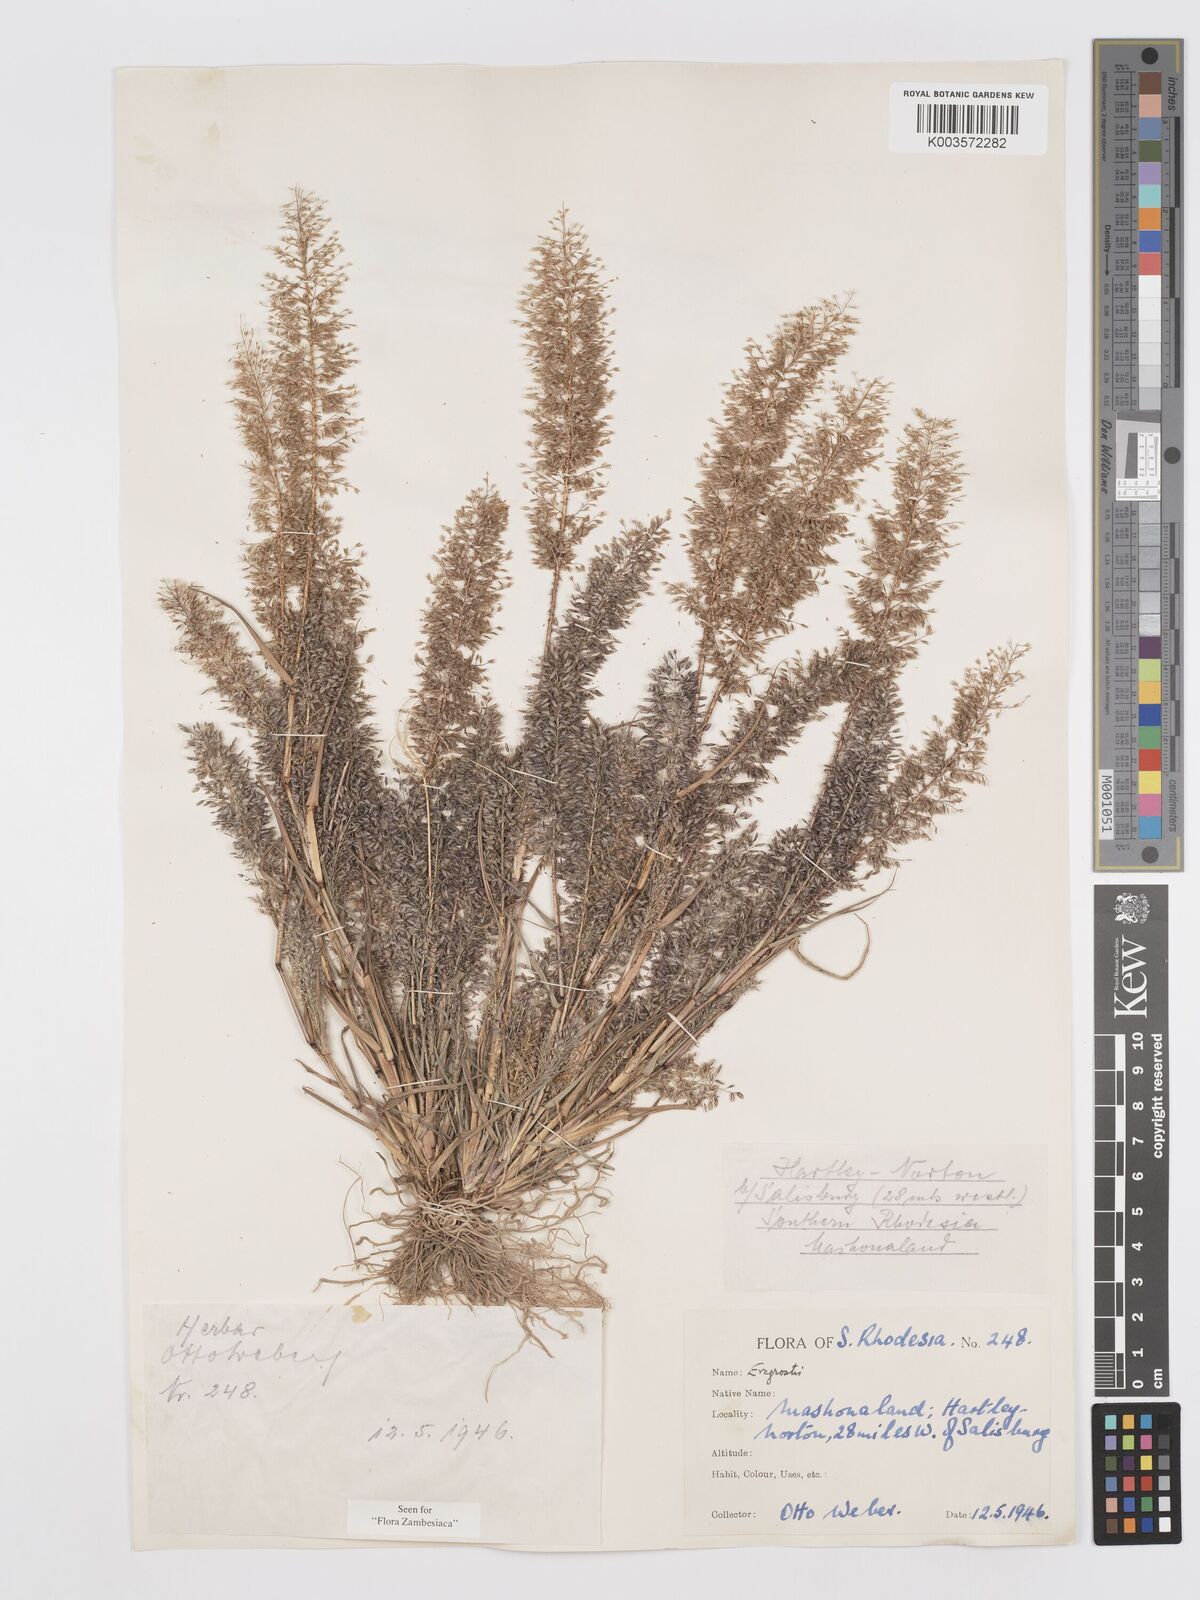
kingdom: Plantae
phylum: Tracheophyta
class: Liliopsida
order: Poales
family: Poaceae
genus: Eragrostis
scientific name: Eragrostis
